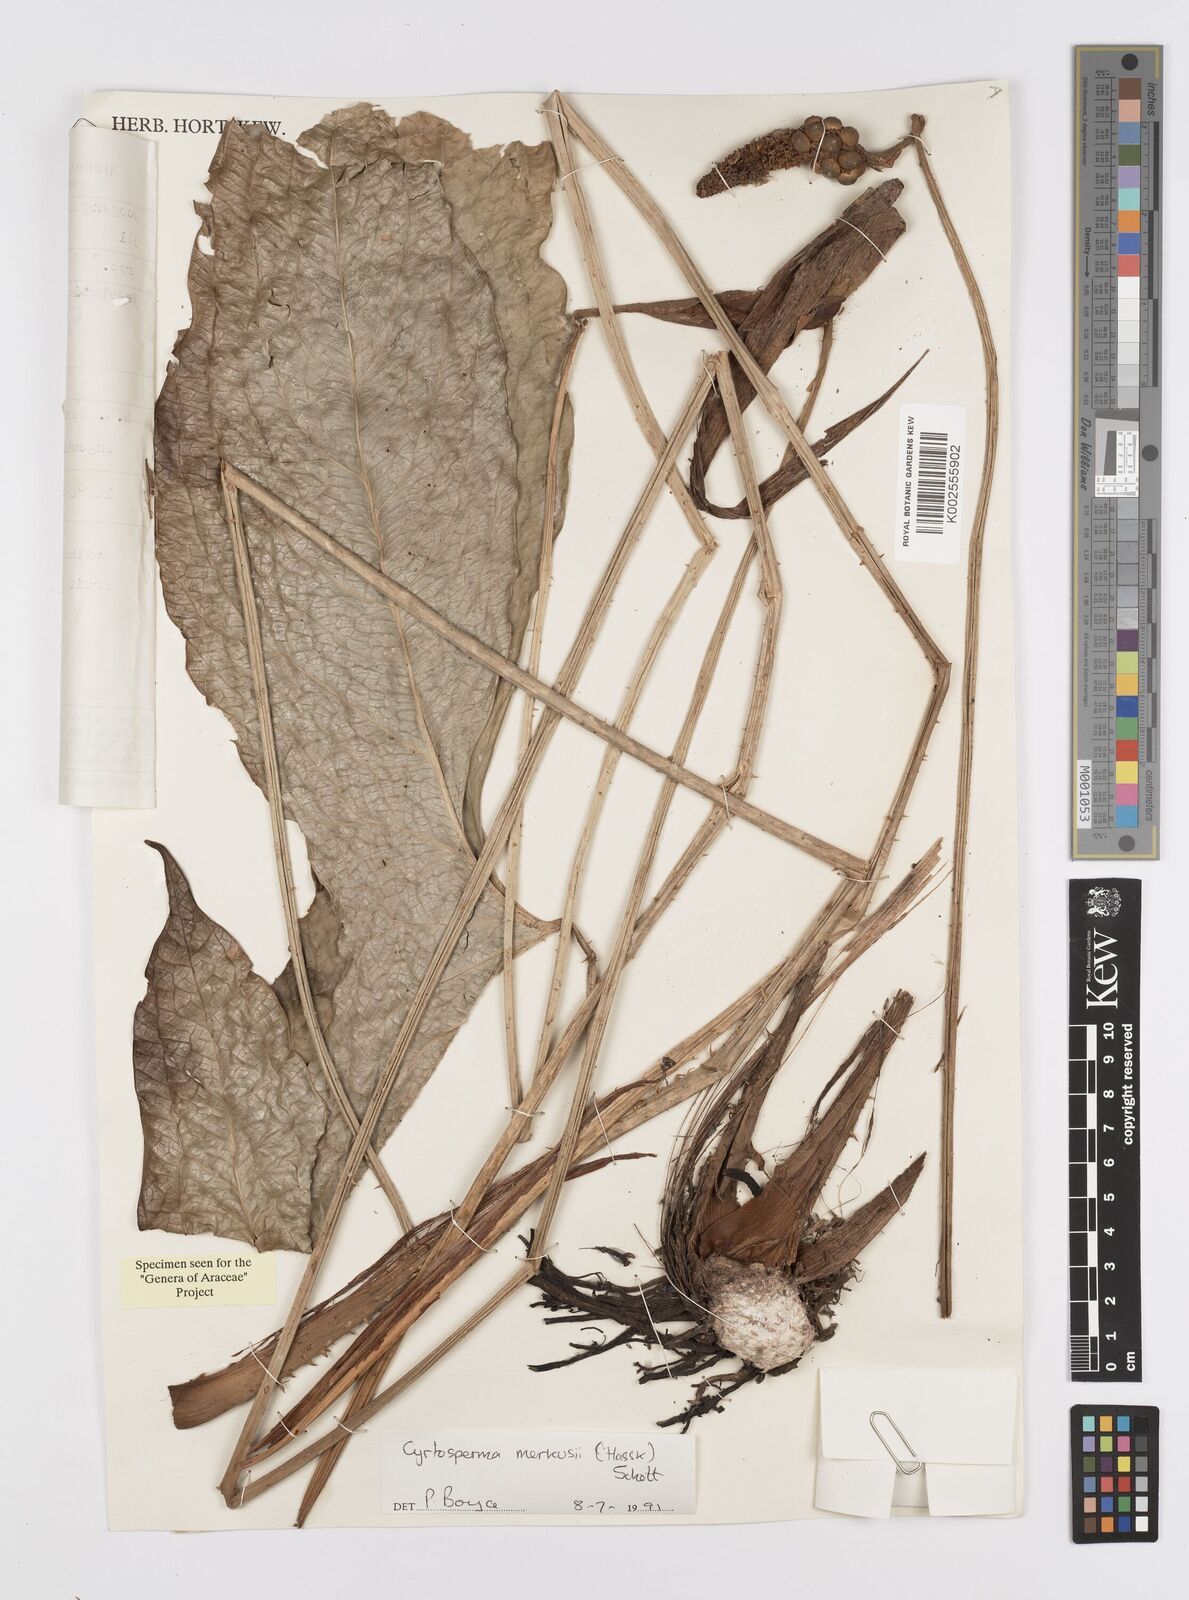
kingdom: Plantae
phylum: Tracheophyta
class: Liliopsida
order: Alismatales
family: Araceae
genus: Cyrtosperma
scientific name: Cyrtosperma merkusii
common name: Giant swamp-taro
